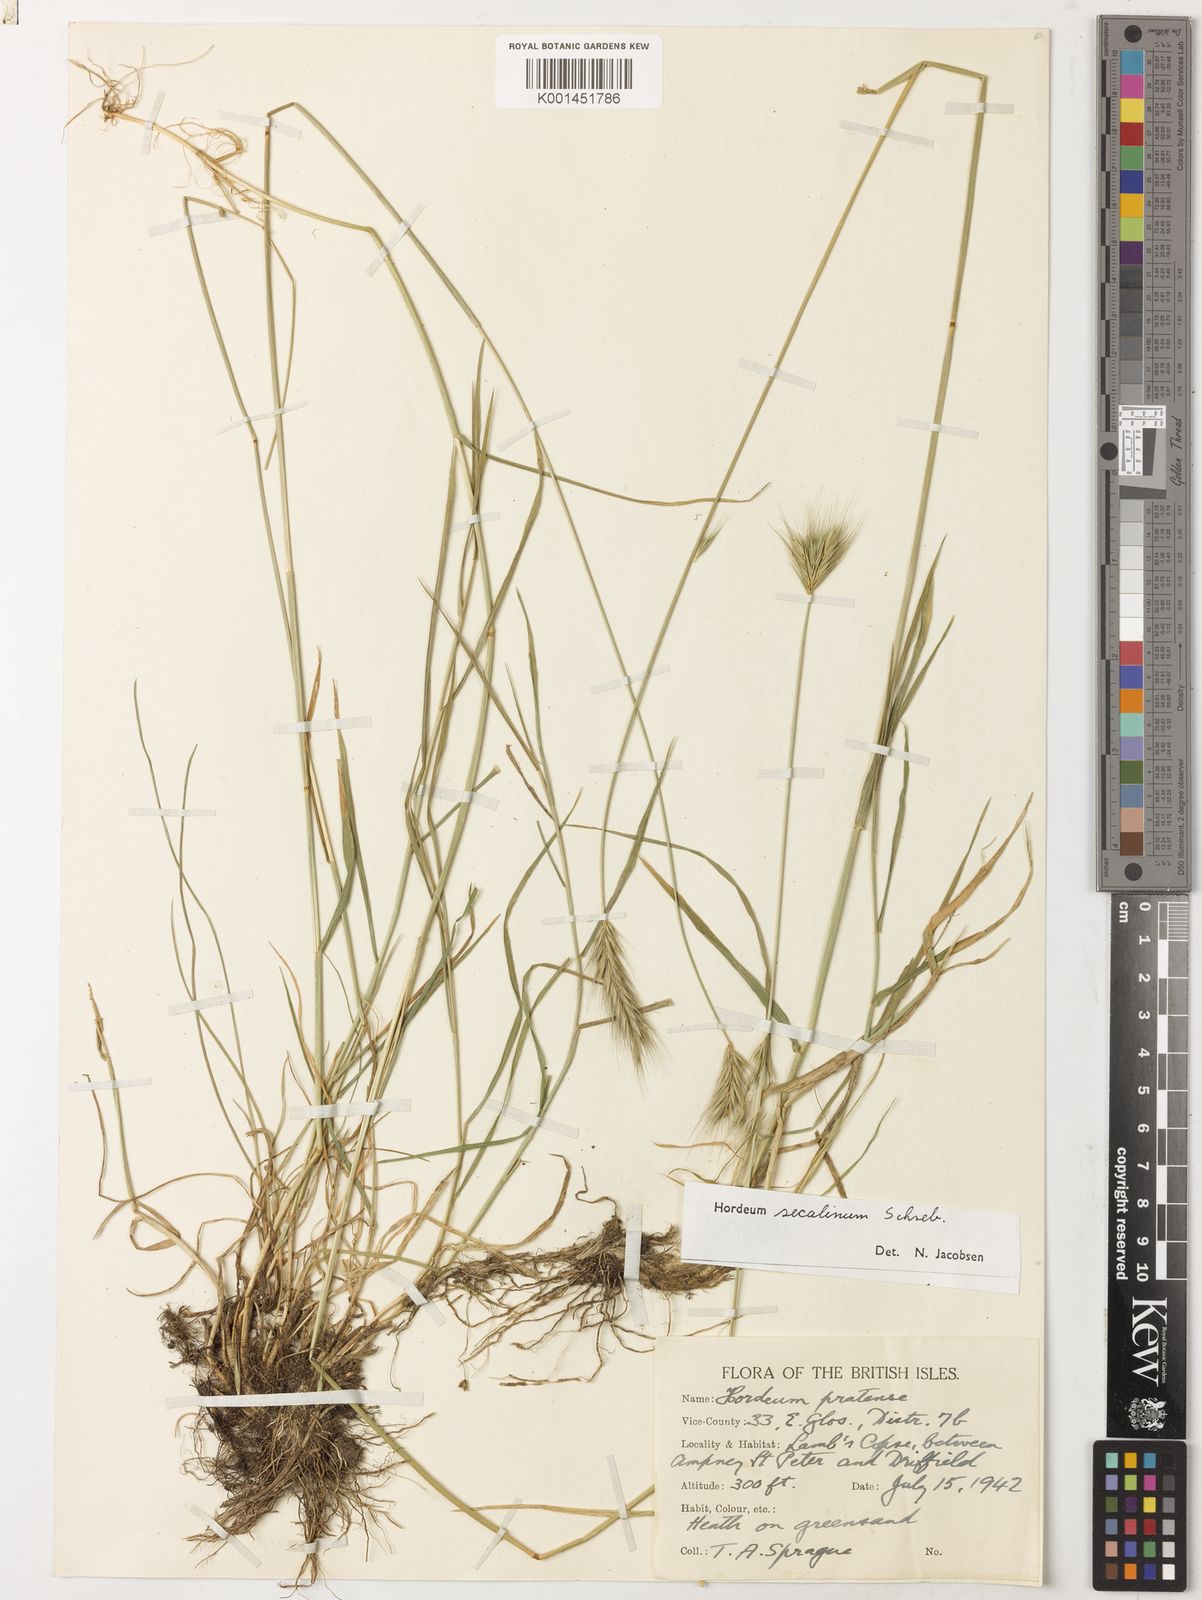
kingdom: Plantae
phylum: Tracheophyta
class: Liliopsida
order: Poales
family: Poaceae
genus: Hordeum
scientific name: Hordeum secalinum
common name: Meadow barley
